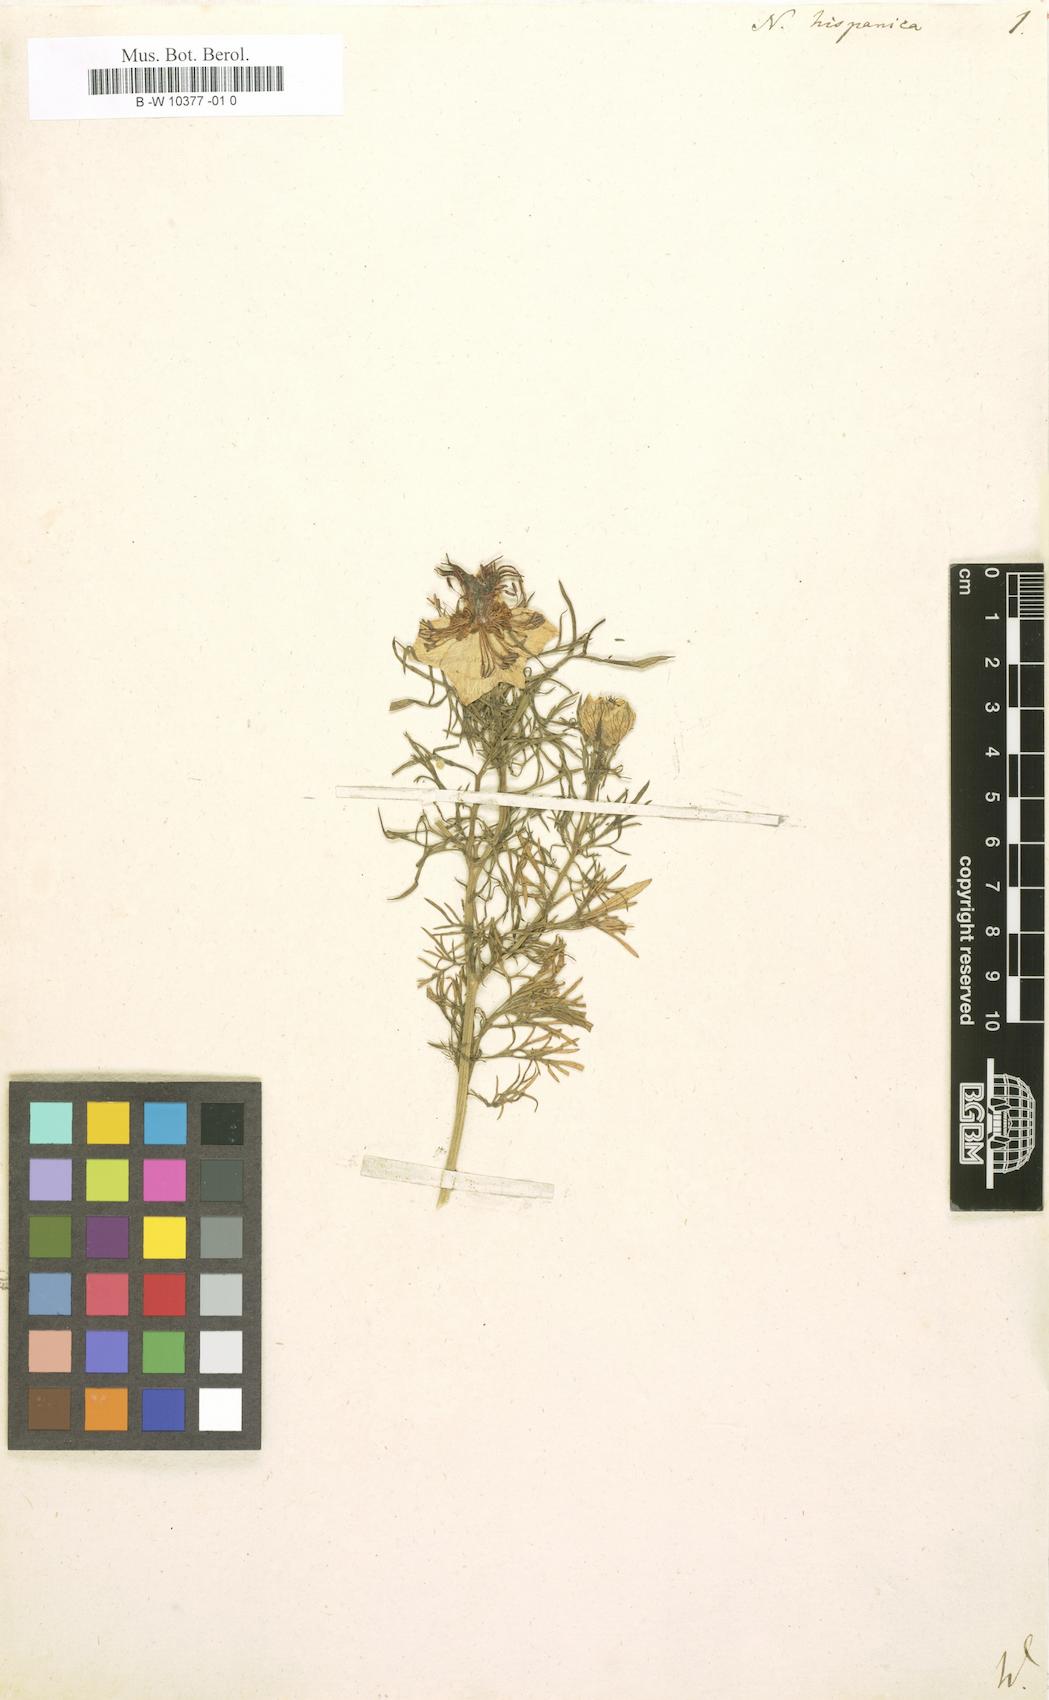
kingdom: Plantae
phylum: Tracheophyta
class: Magnoliopsida
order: Ranunculales
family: Ranunculaceae
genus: Nigella
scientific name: Nigella hispanica
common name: Fennel-flower
